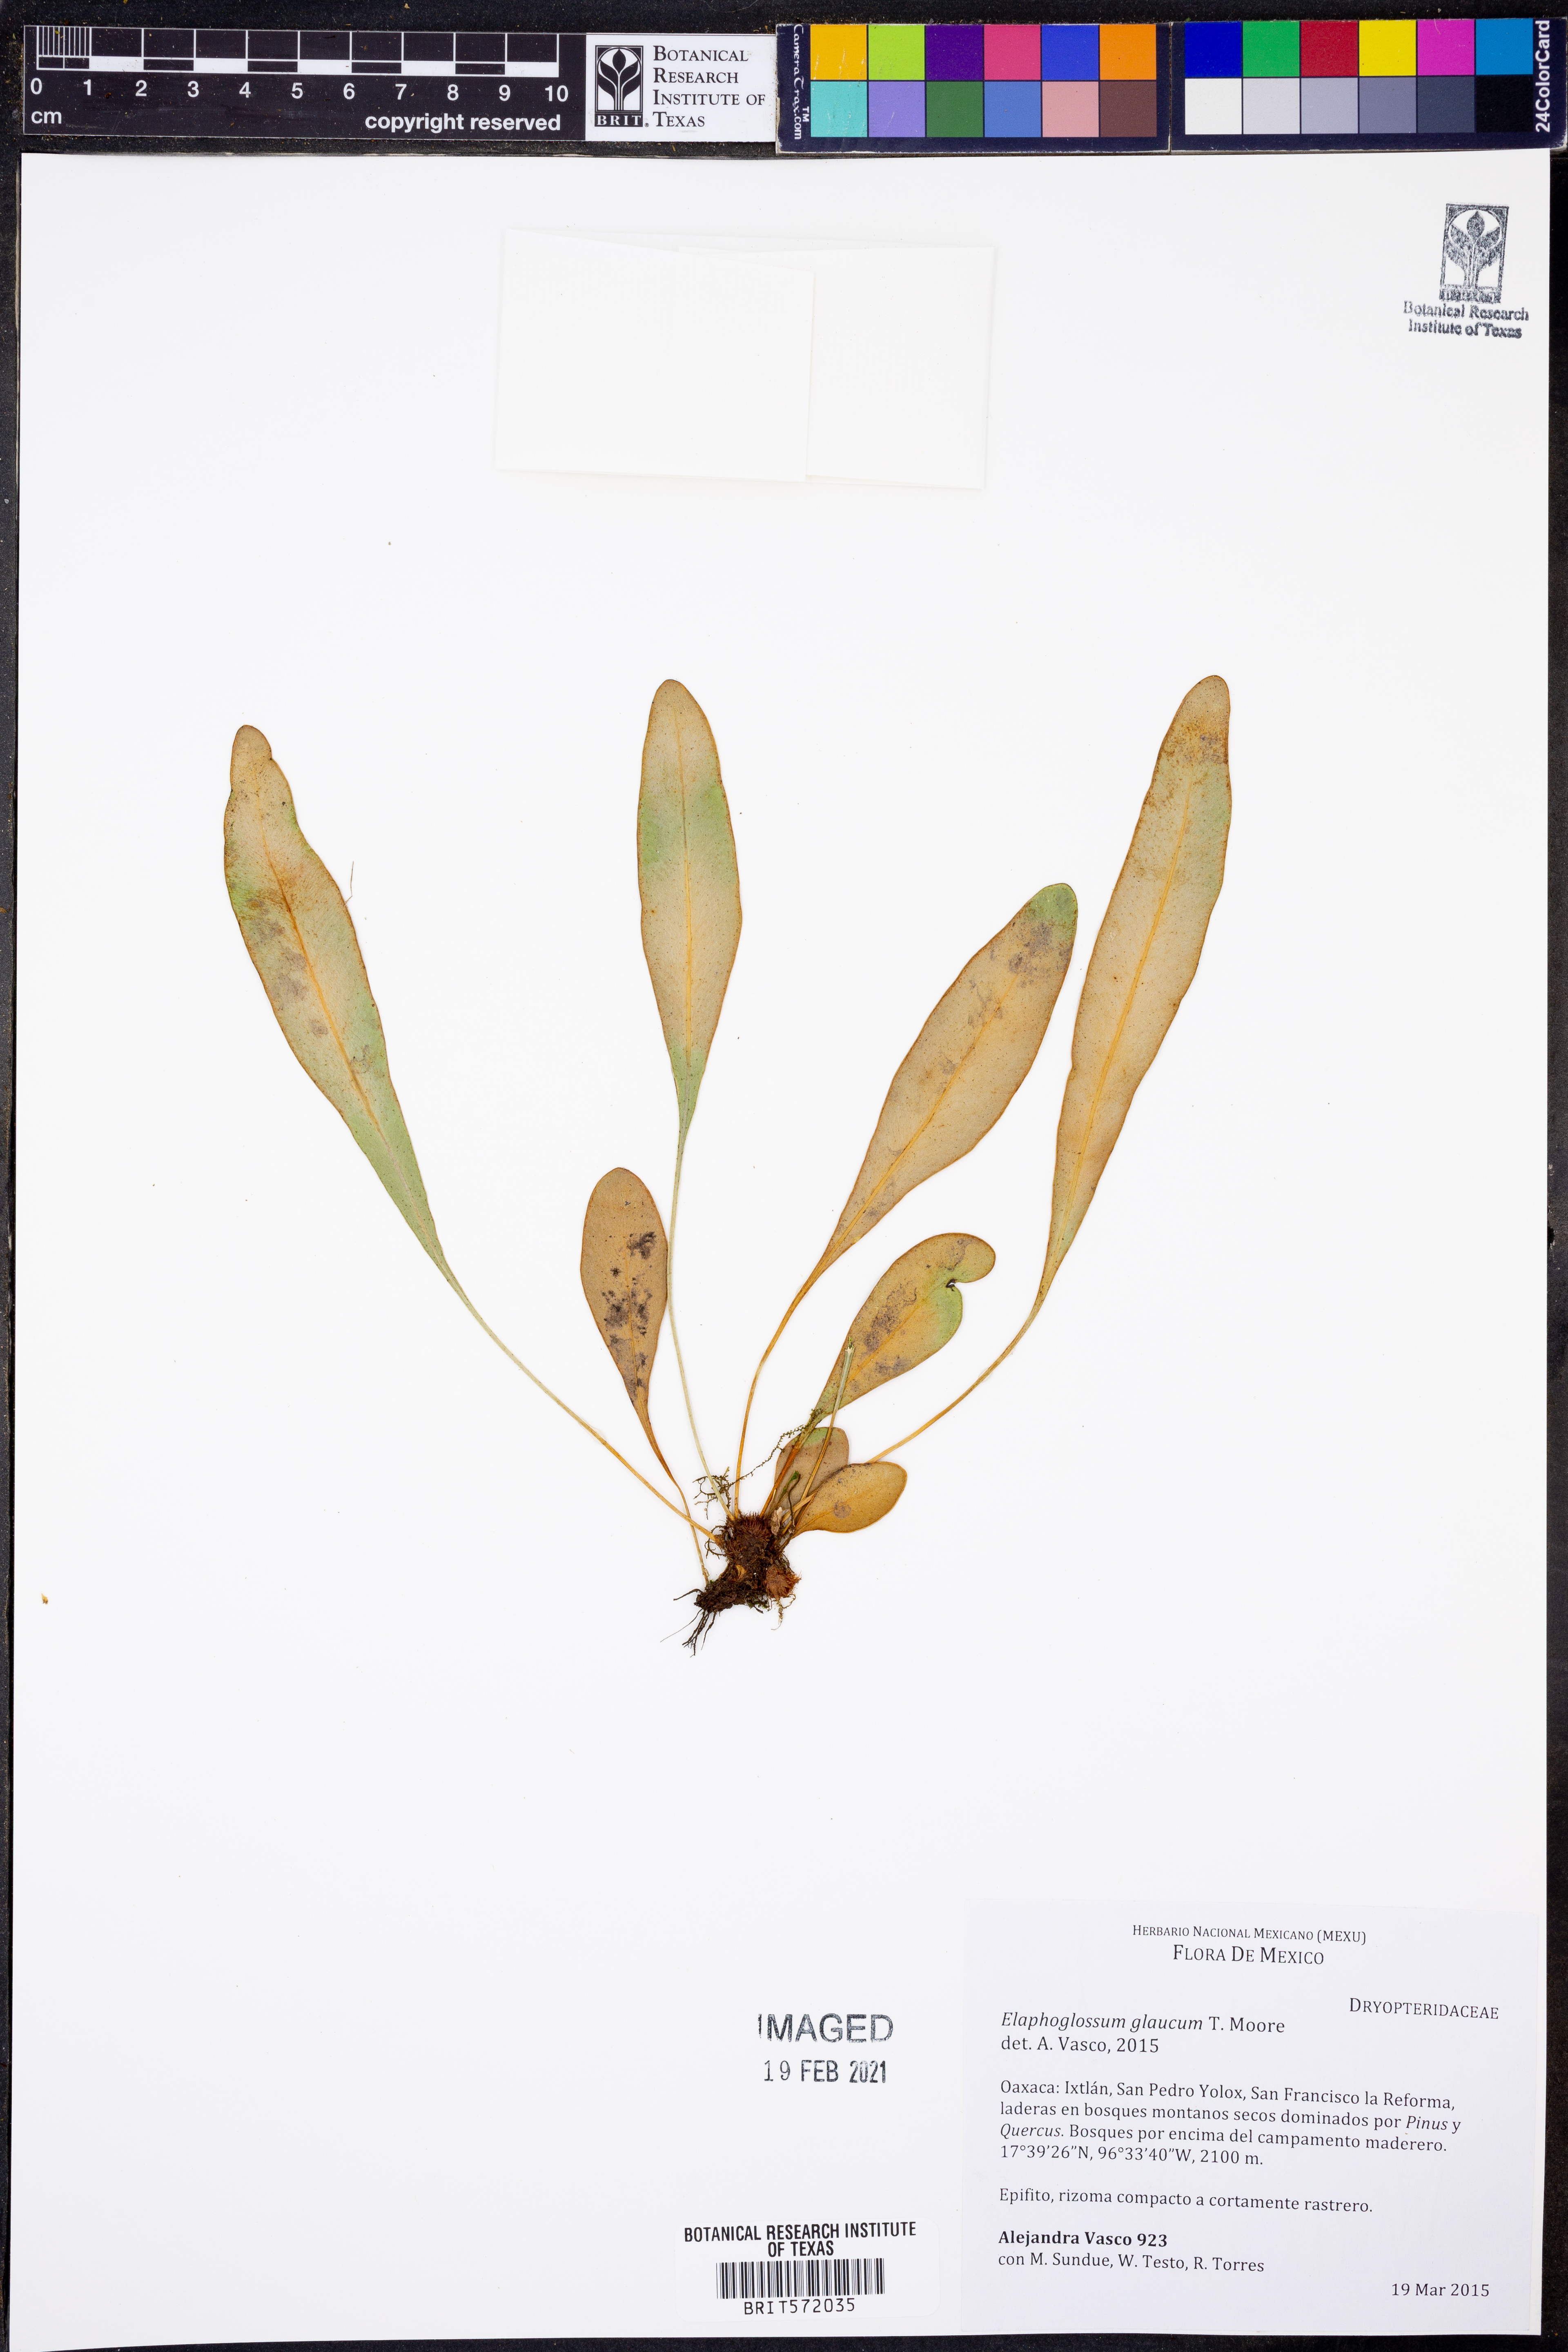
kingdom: Plantae
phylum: Tracheophyta
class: Polypodiopsida
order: Polypodiales
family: Dryopteridaceae
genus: Elaphoglossum
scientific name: Elaphoglossum glaucum
